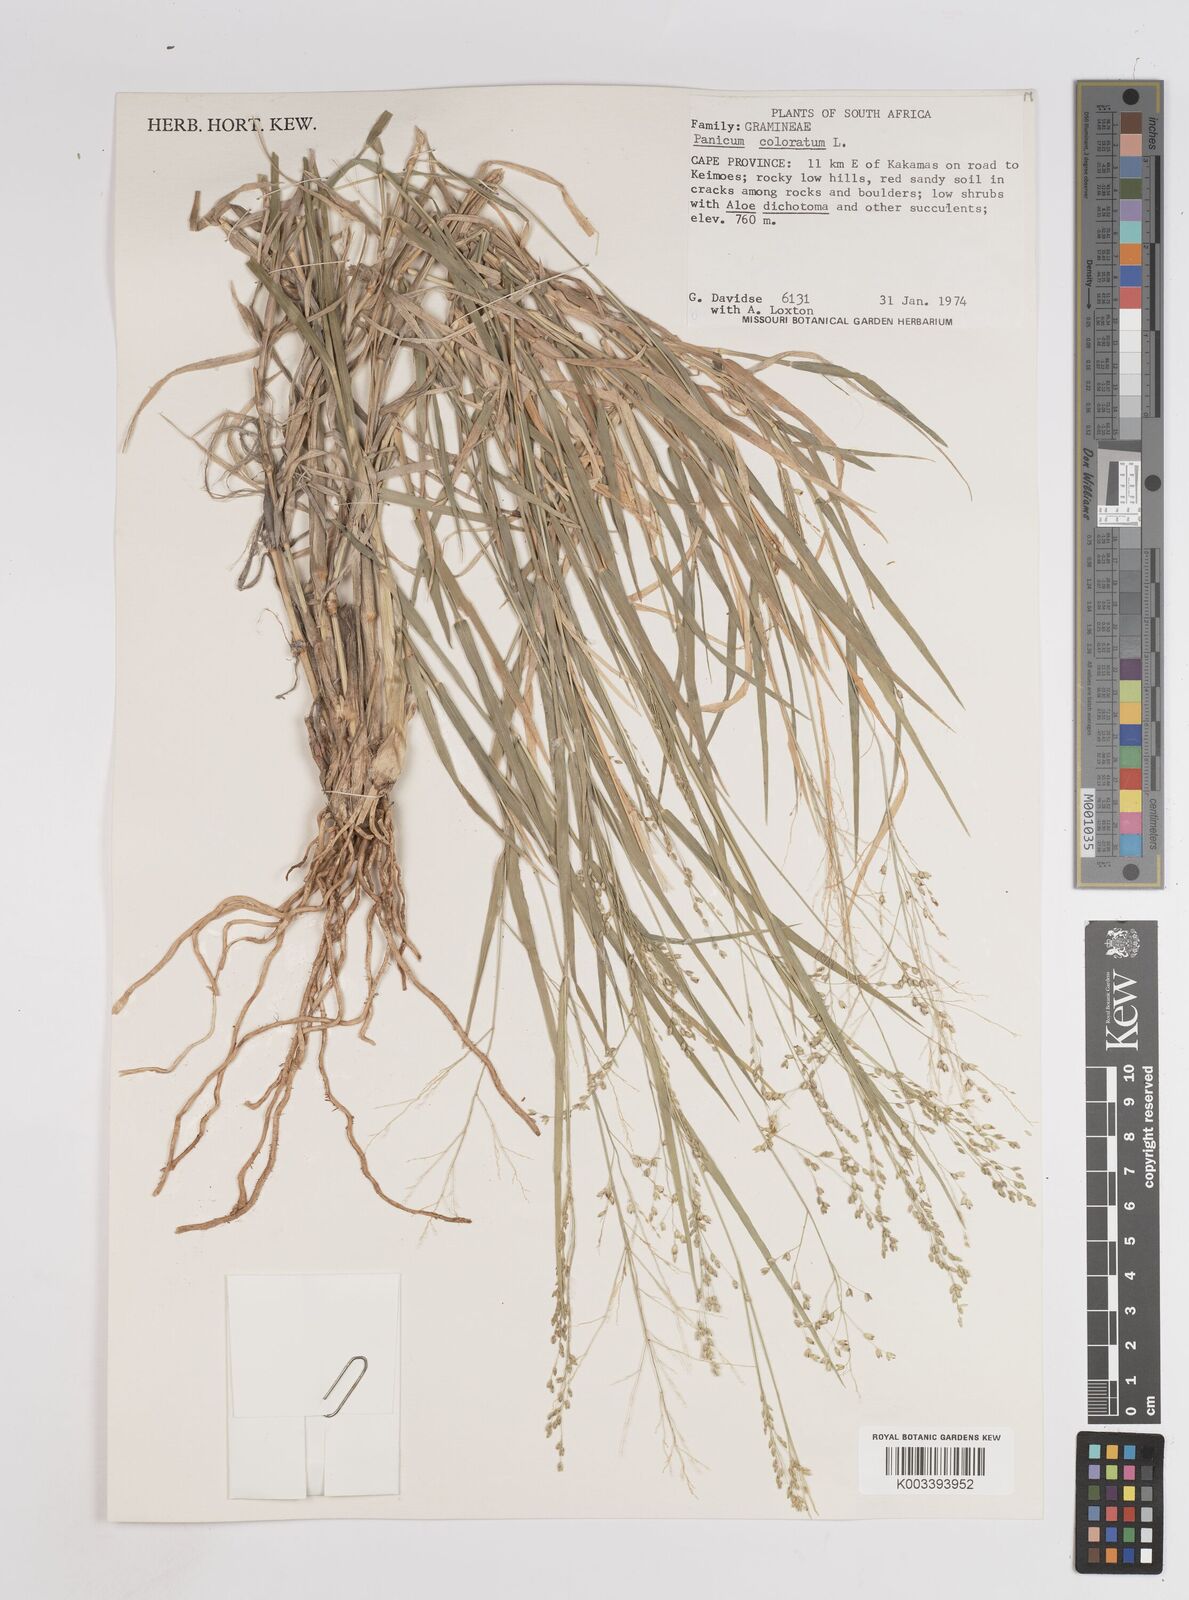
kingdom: Plantae
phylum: Tracheophyta
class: Liliopsida
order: Poales
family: Poaceae
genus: Panicum
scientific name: Panicum coloratum
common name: Kleingrass
